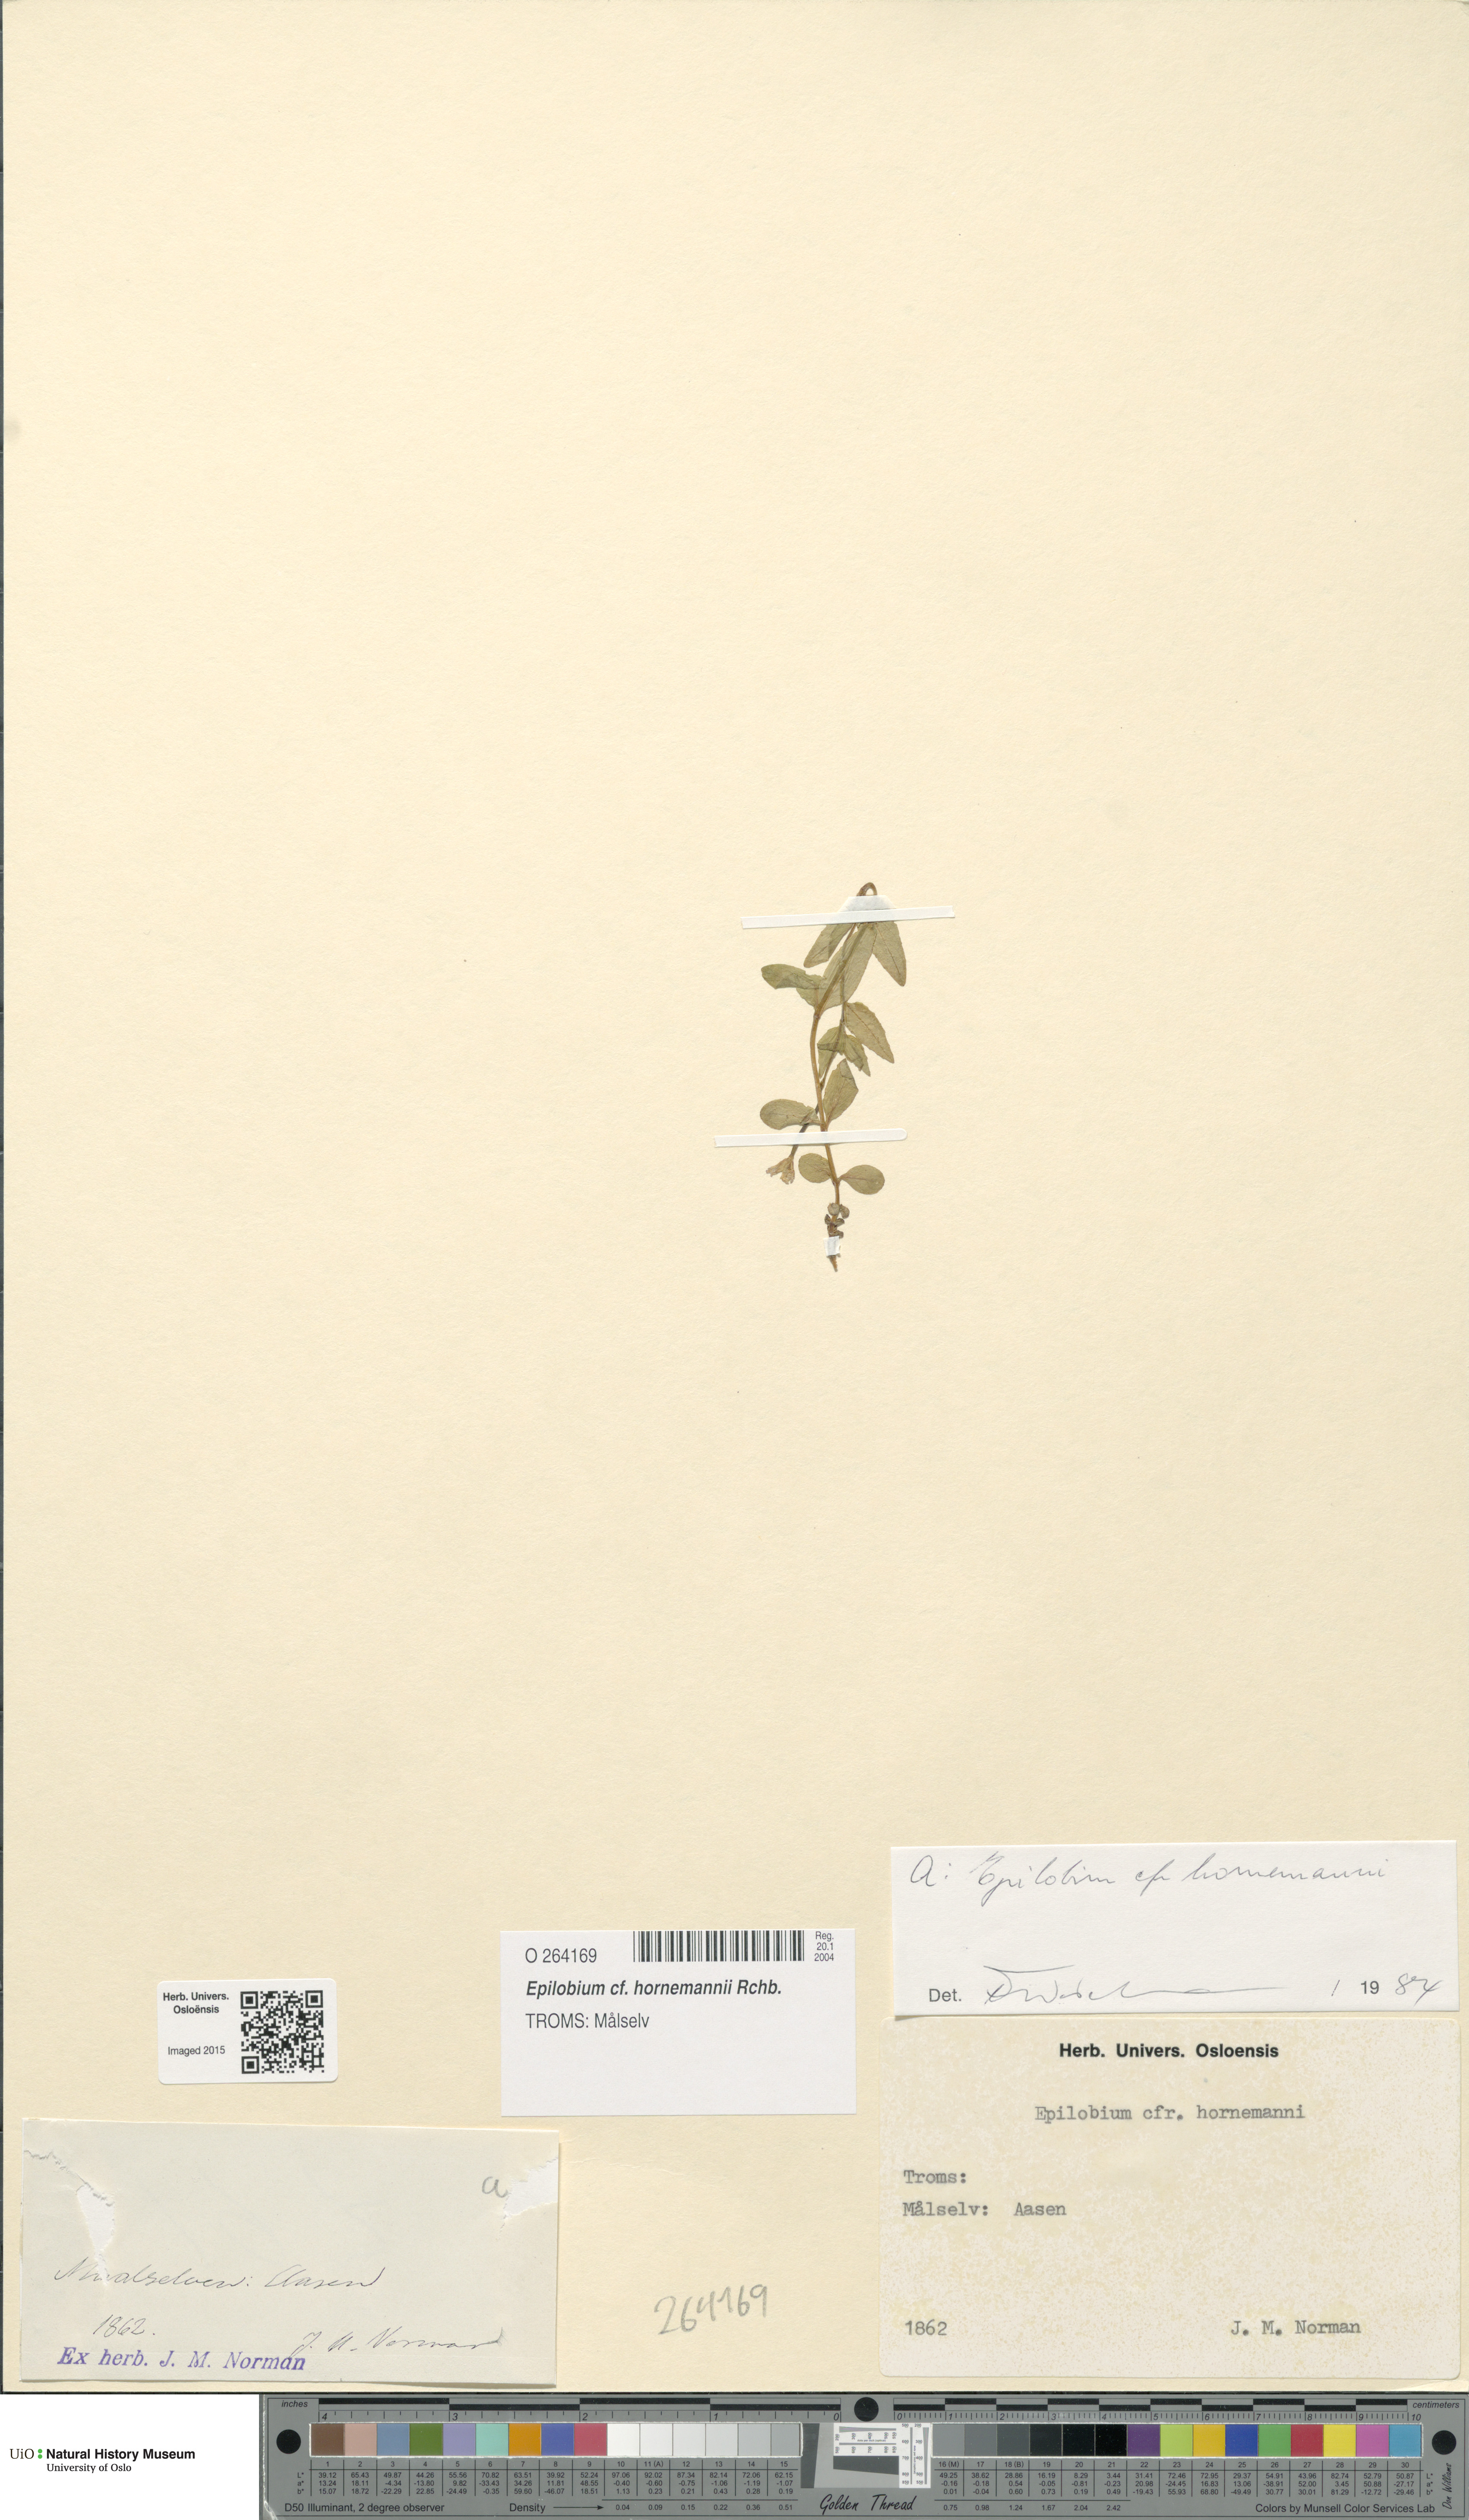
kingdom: Plantae
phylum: Tracheophyta
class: Magnoliopsida
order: Myrtales
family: Onagraceae
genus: Epilobium
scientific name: Epilobium hornemannii
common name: Hornemann's willowherb
